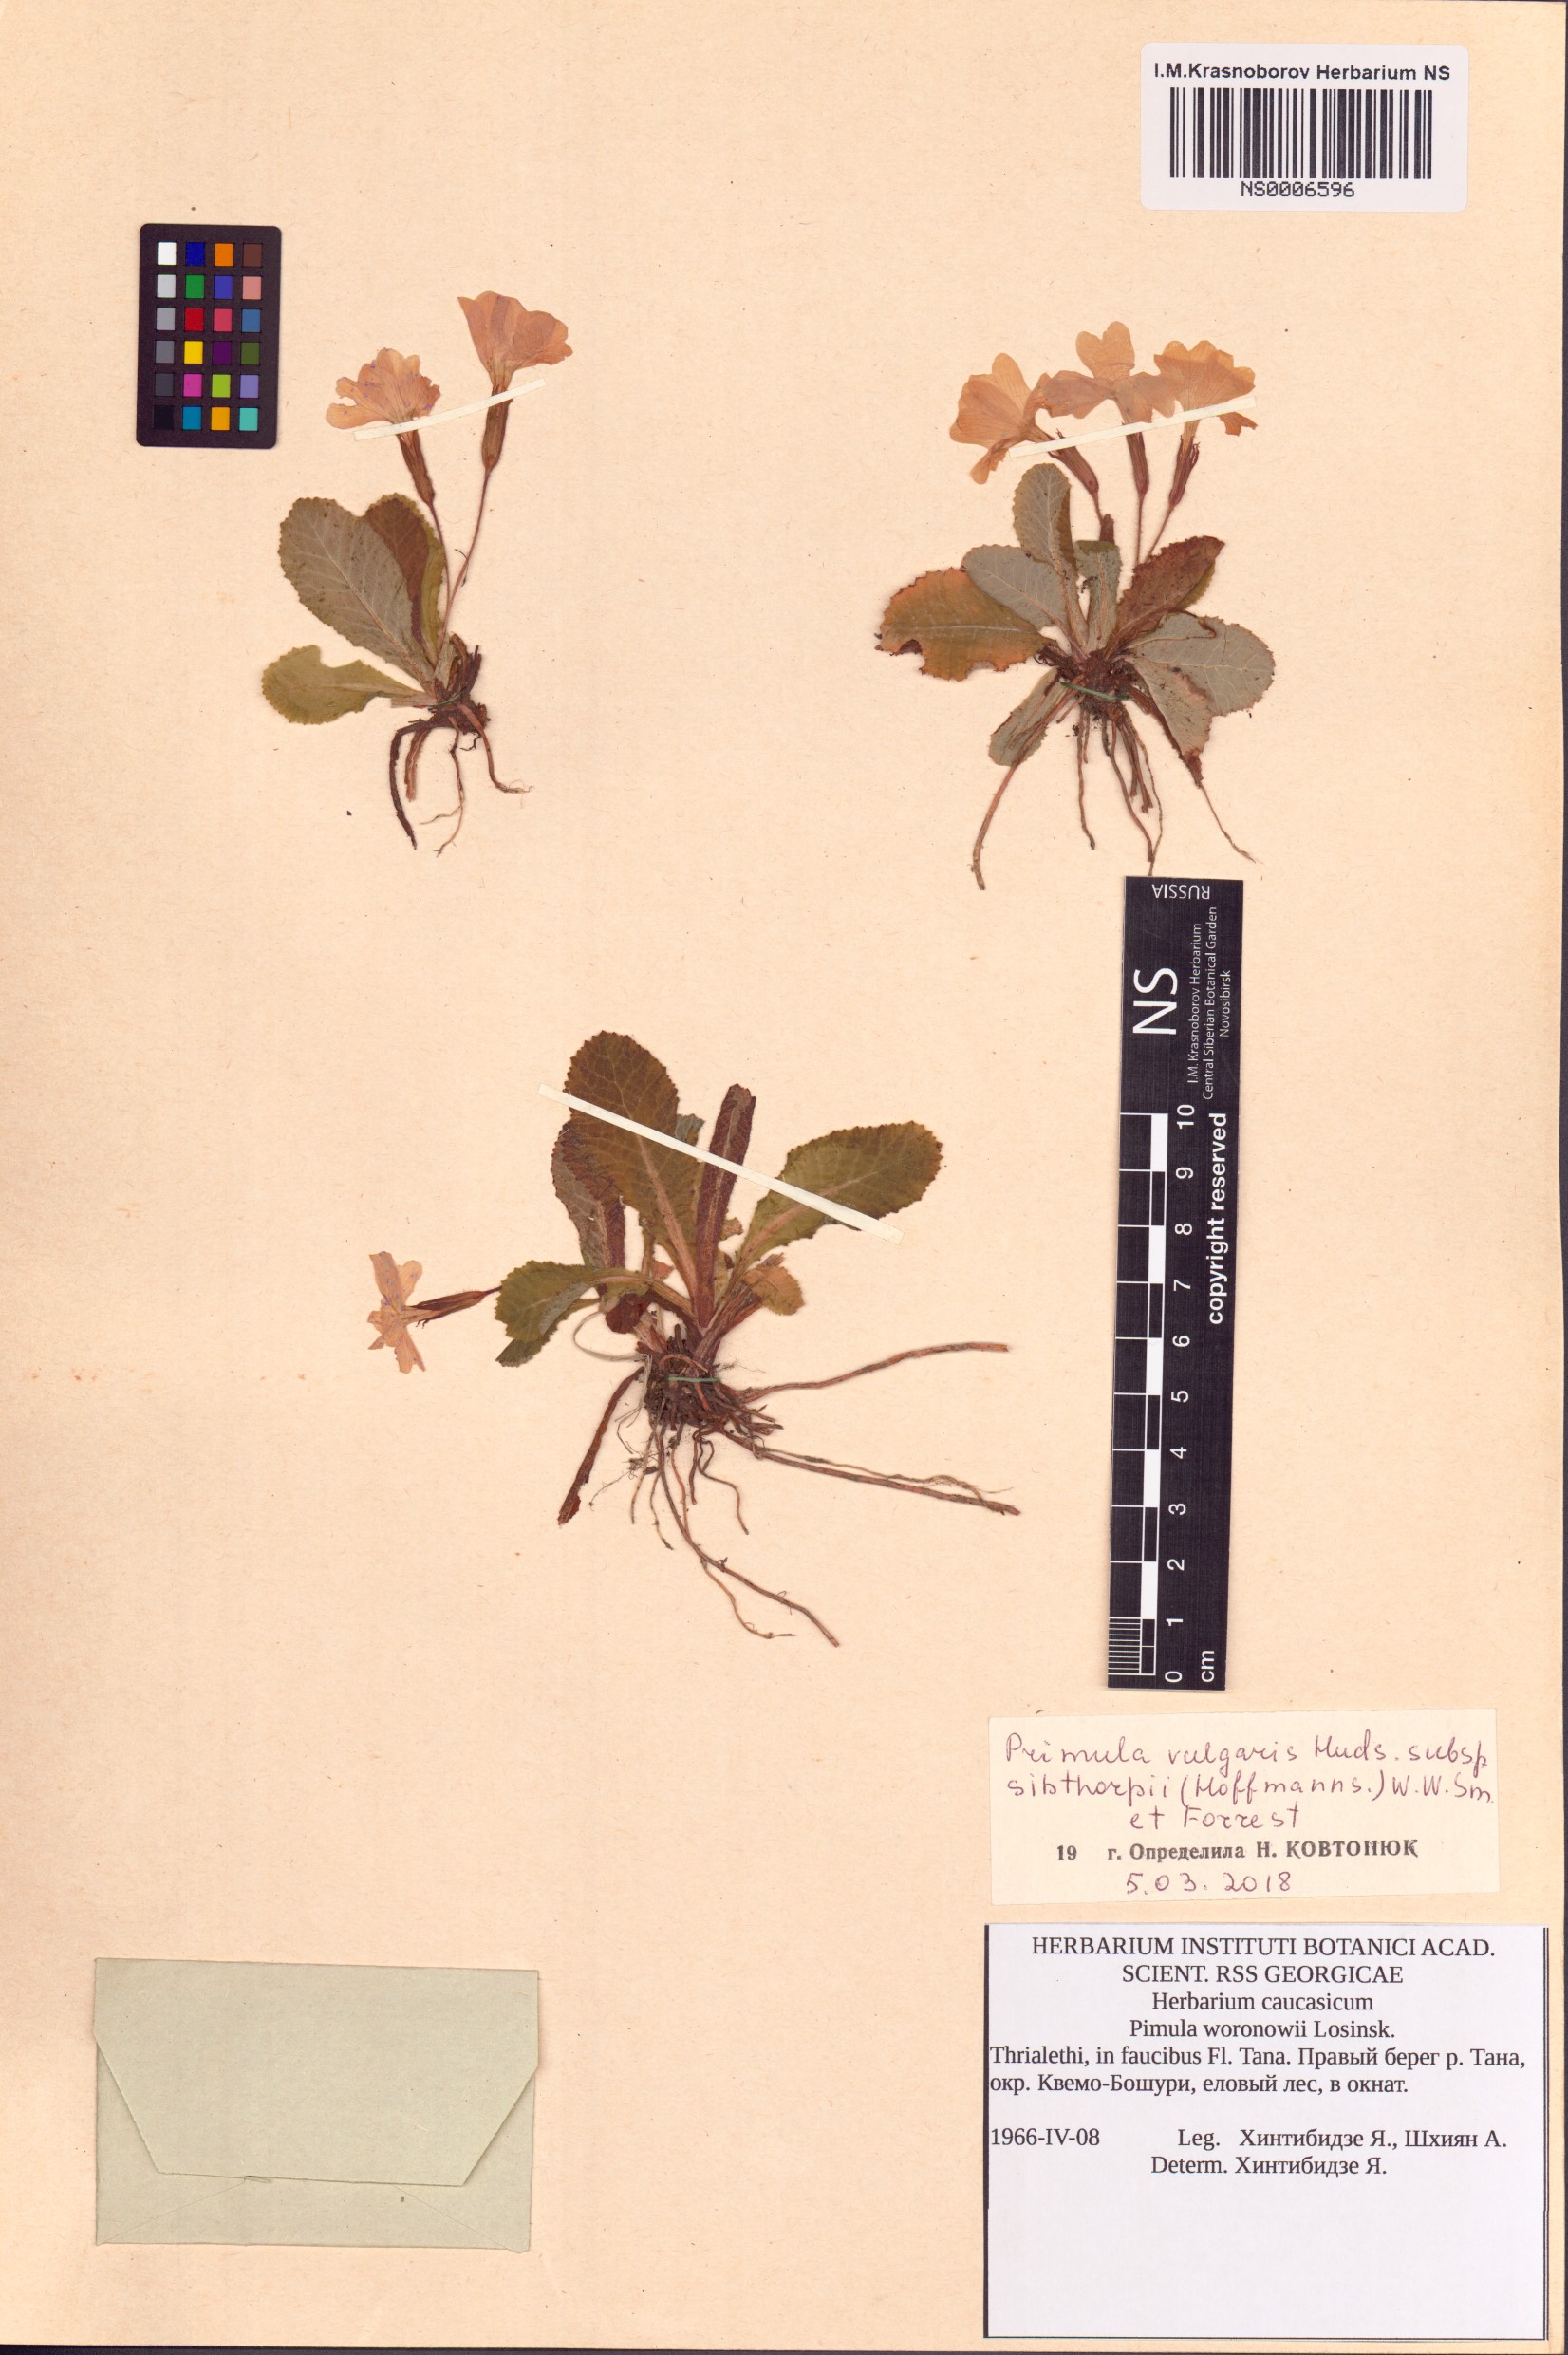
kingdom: Plantae
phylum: Tracheophyta
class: Magnoliopsida
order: Ericales
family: Primulaceae
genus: Primula
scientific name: Primula vulgaris
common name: Primrose
